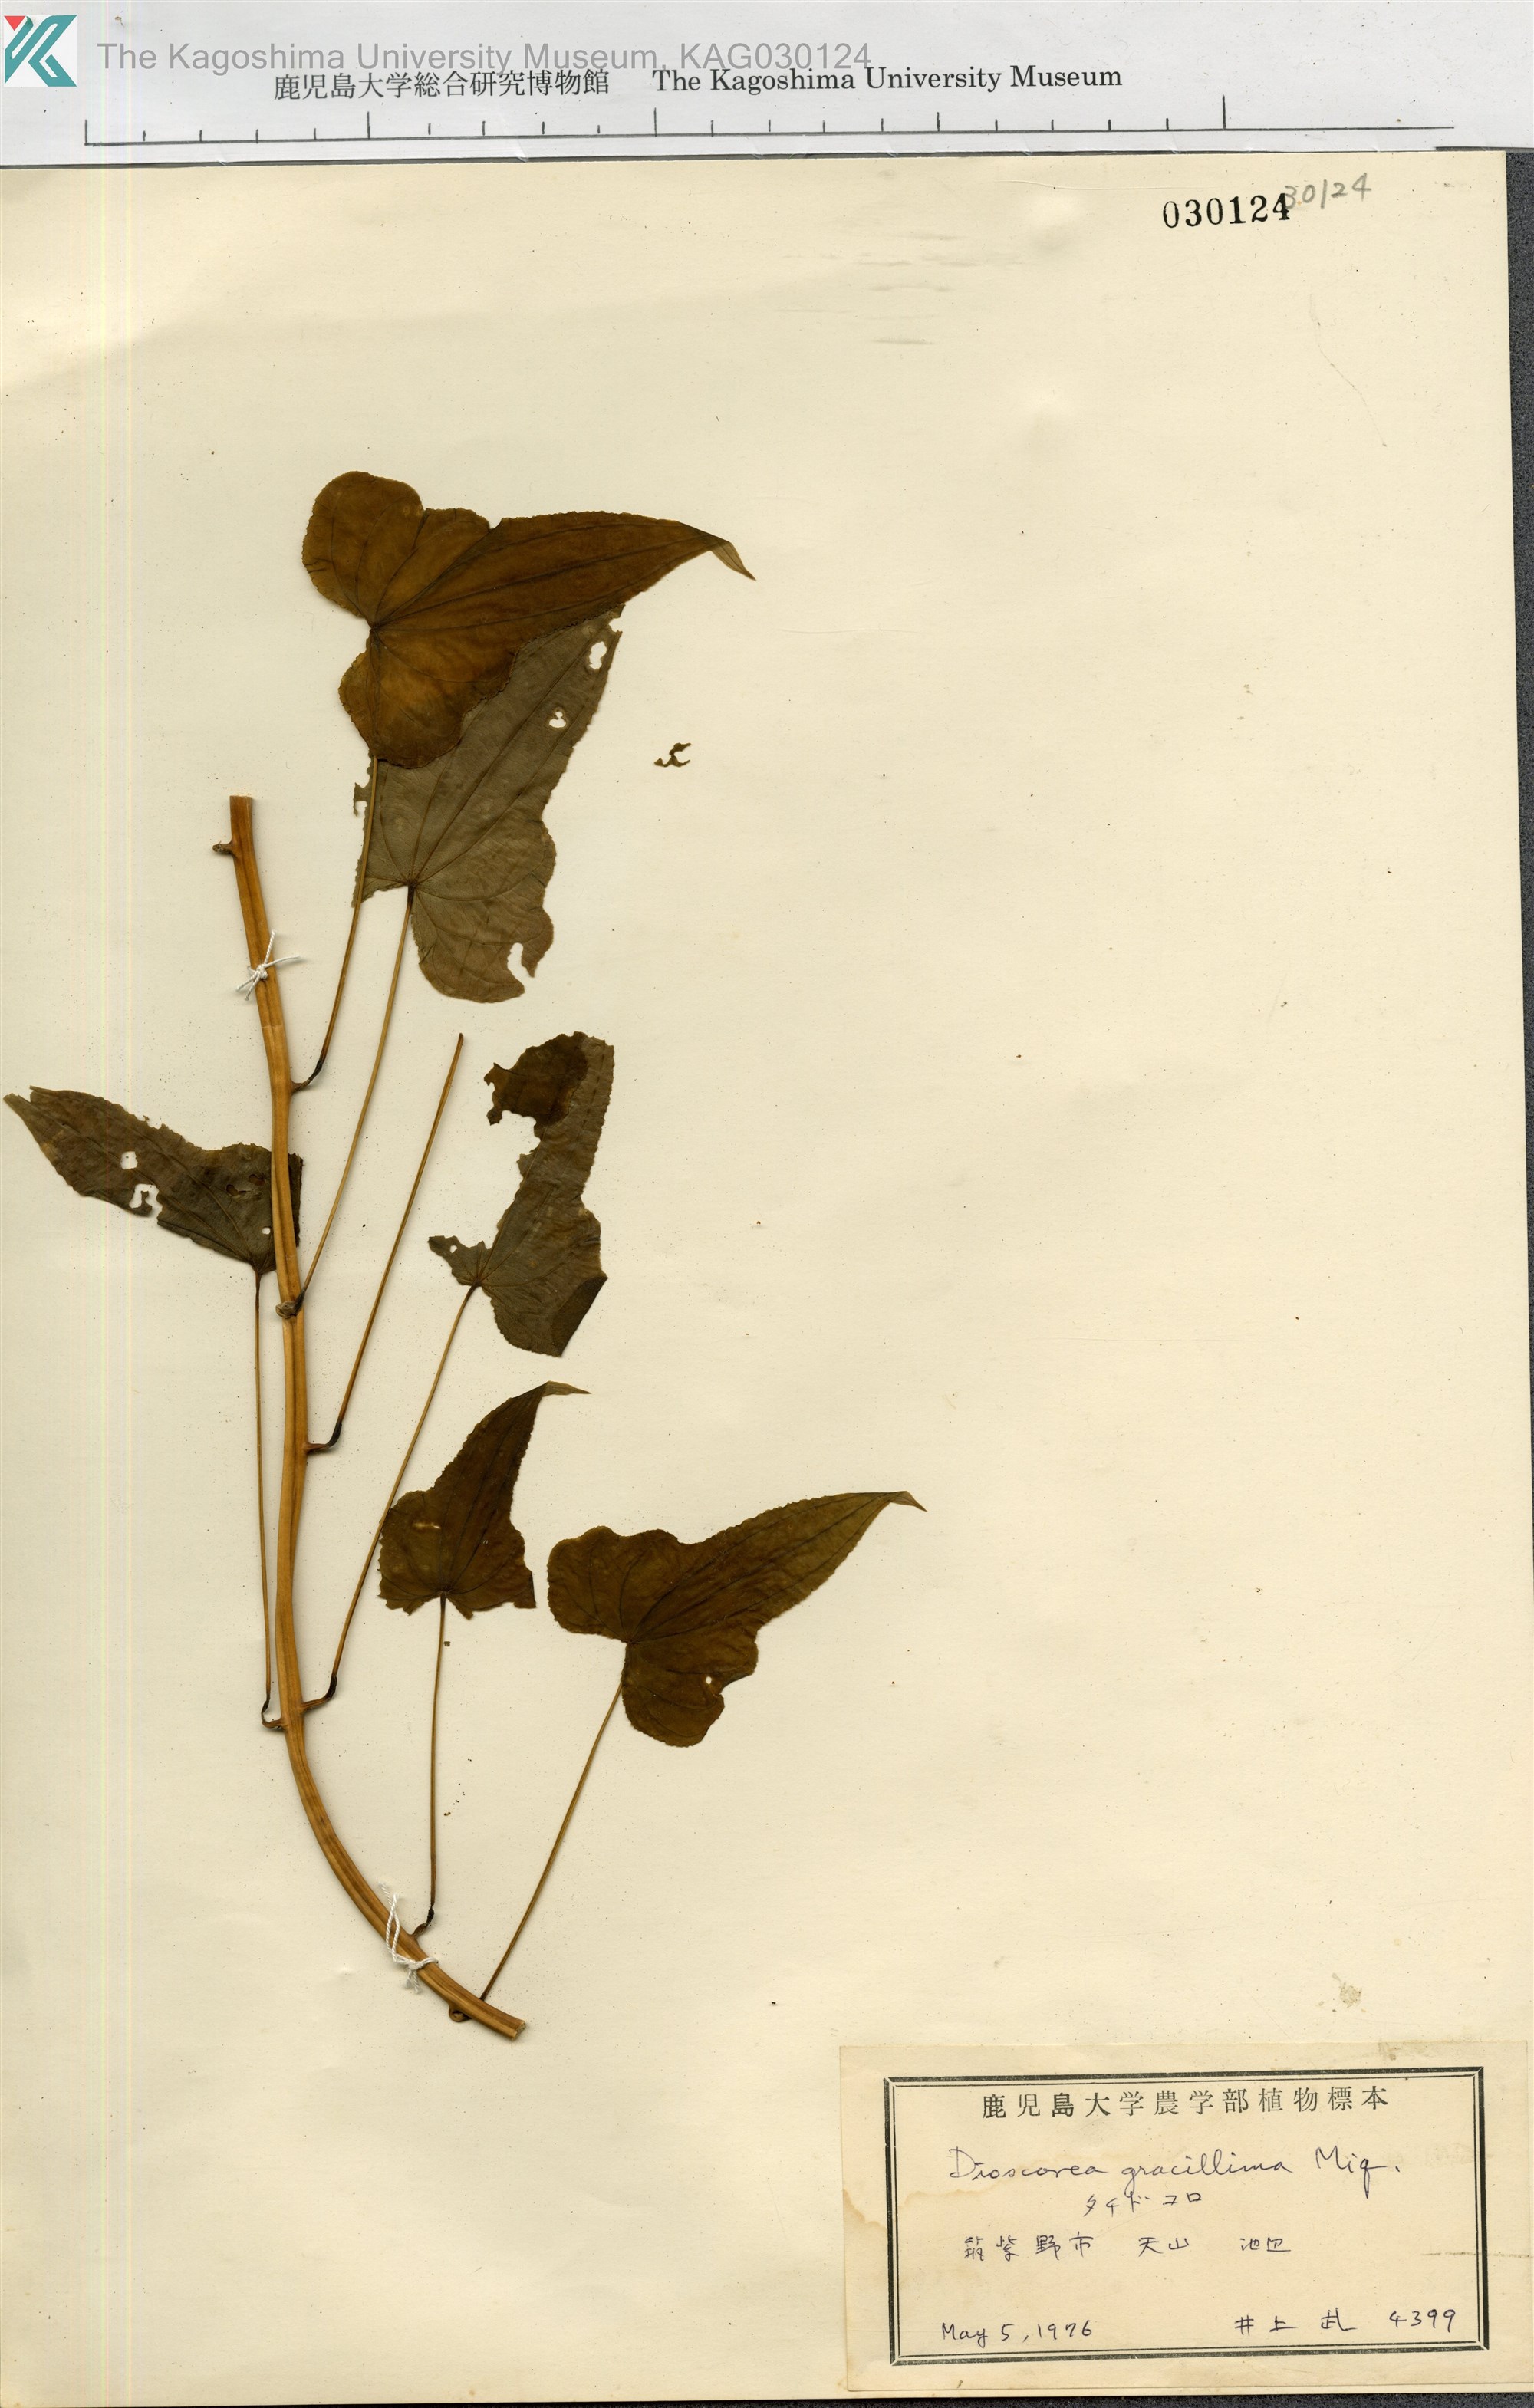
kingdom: Plantae
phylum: Tracheophyta
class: Liliopsida
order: Dioscoreales
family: Dioscoreaceae
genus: Dioscorea
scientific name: Dioscorea gracillima
